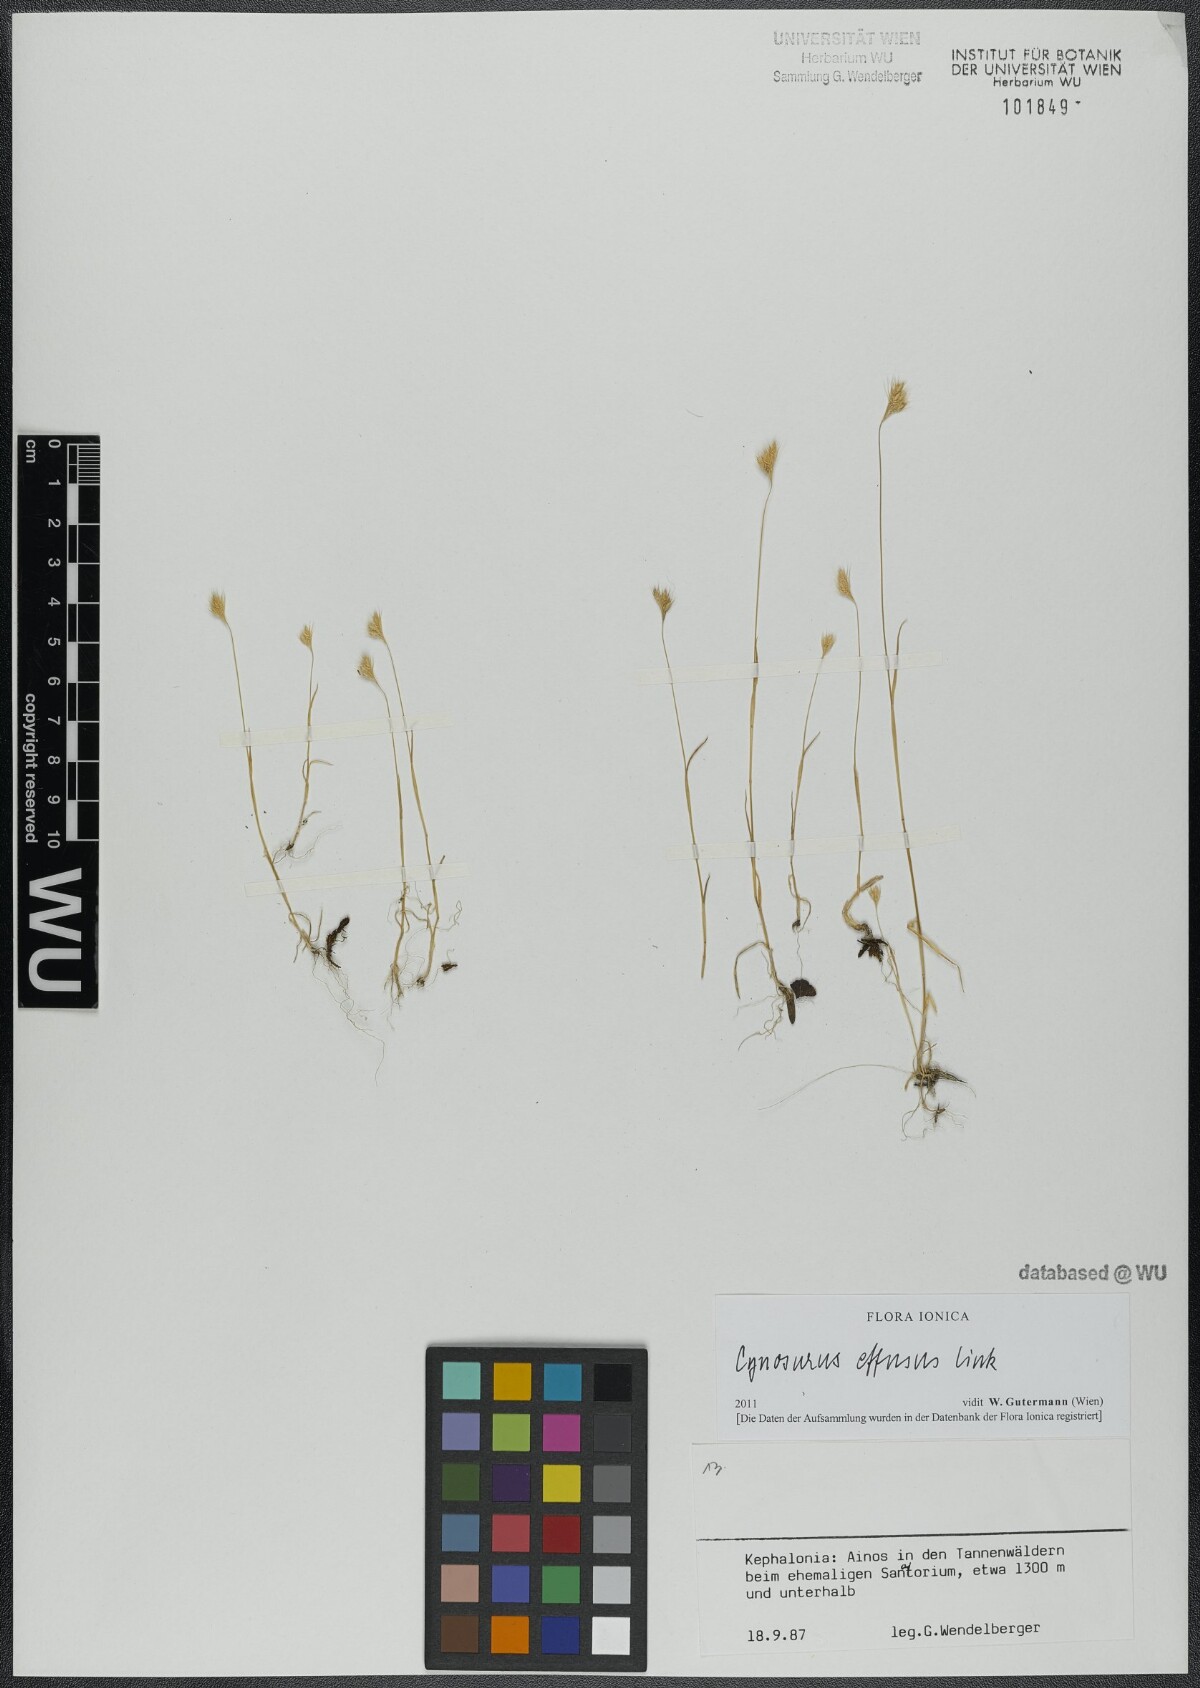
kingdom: Plantae
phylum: Tracheophyta
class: Liliopsida
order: Poales
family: Poaceae
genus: Cynosurus
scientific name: Cynosurus effusus
